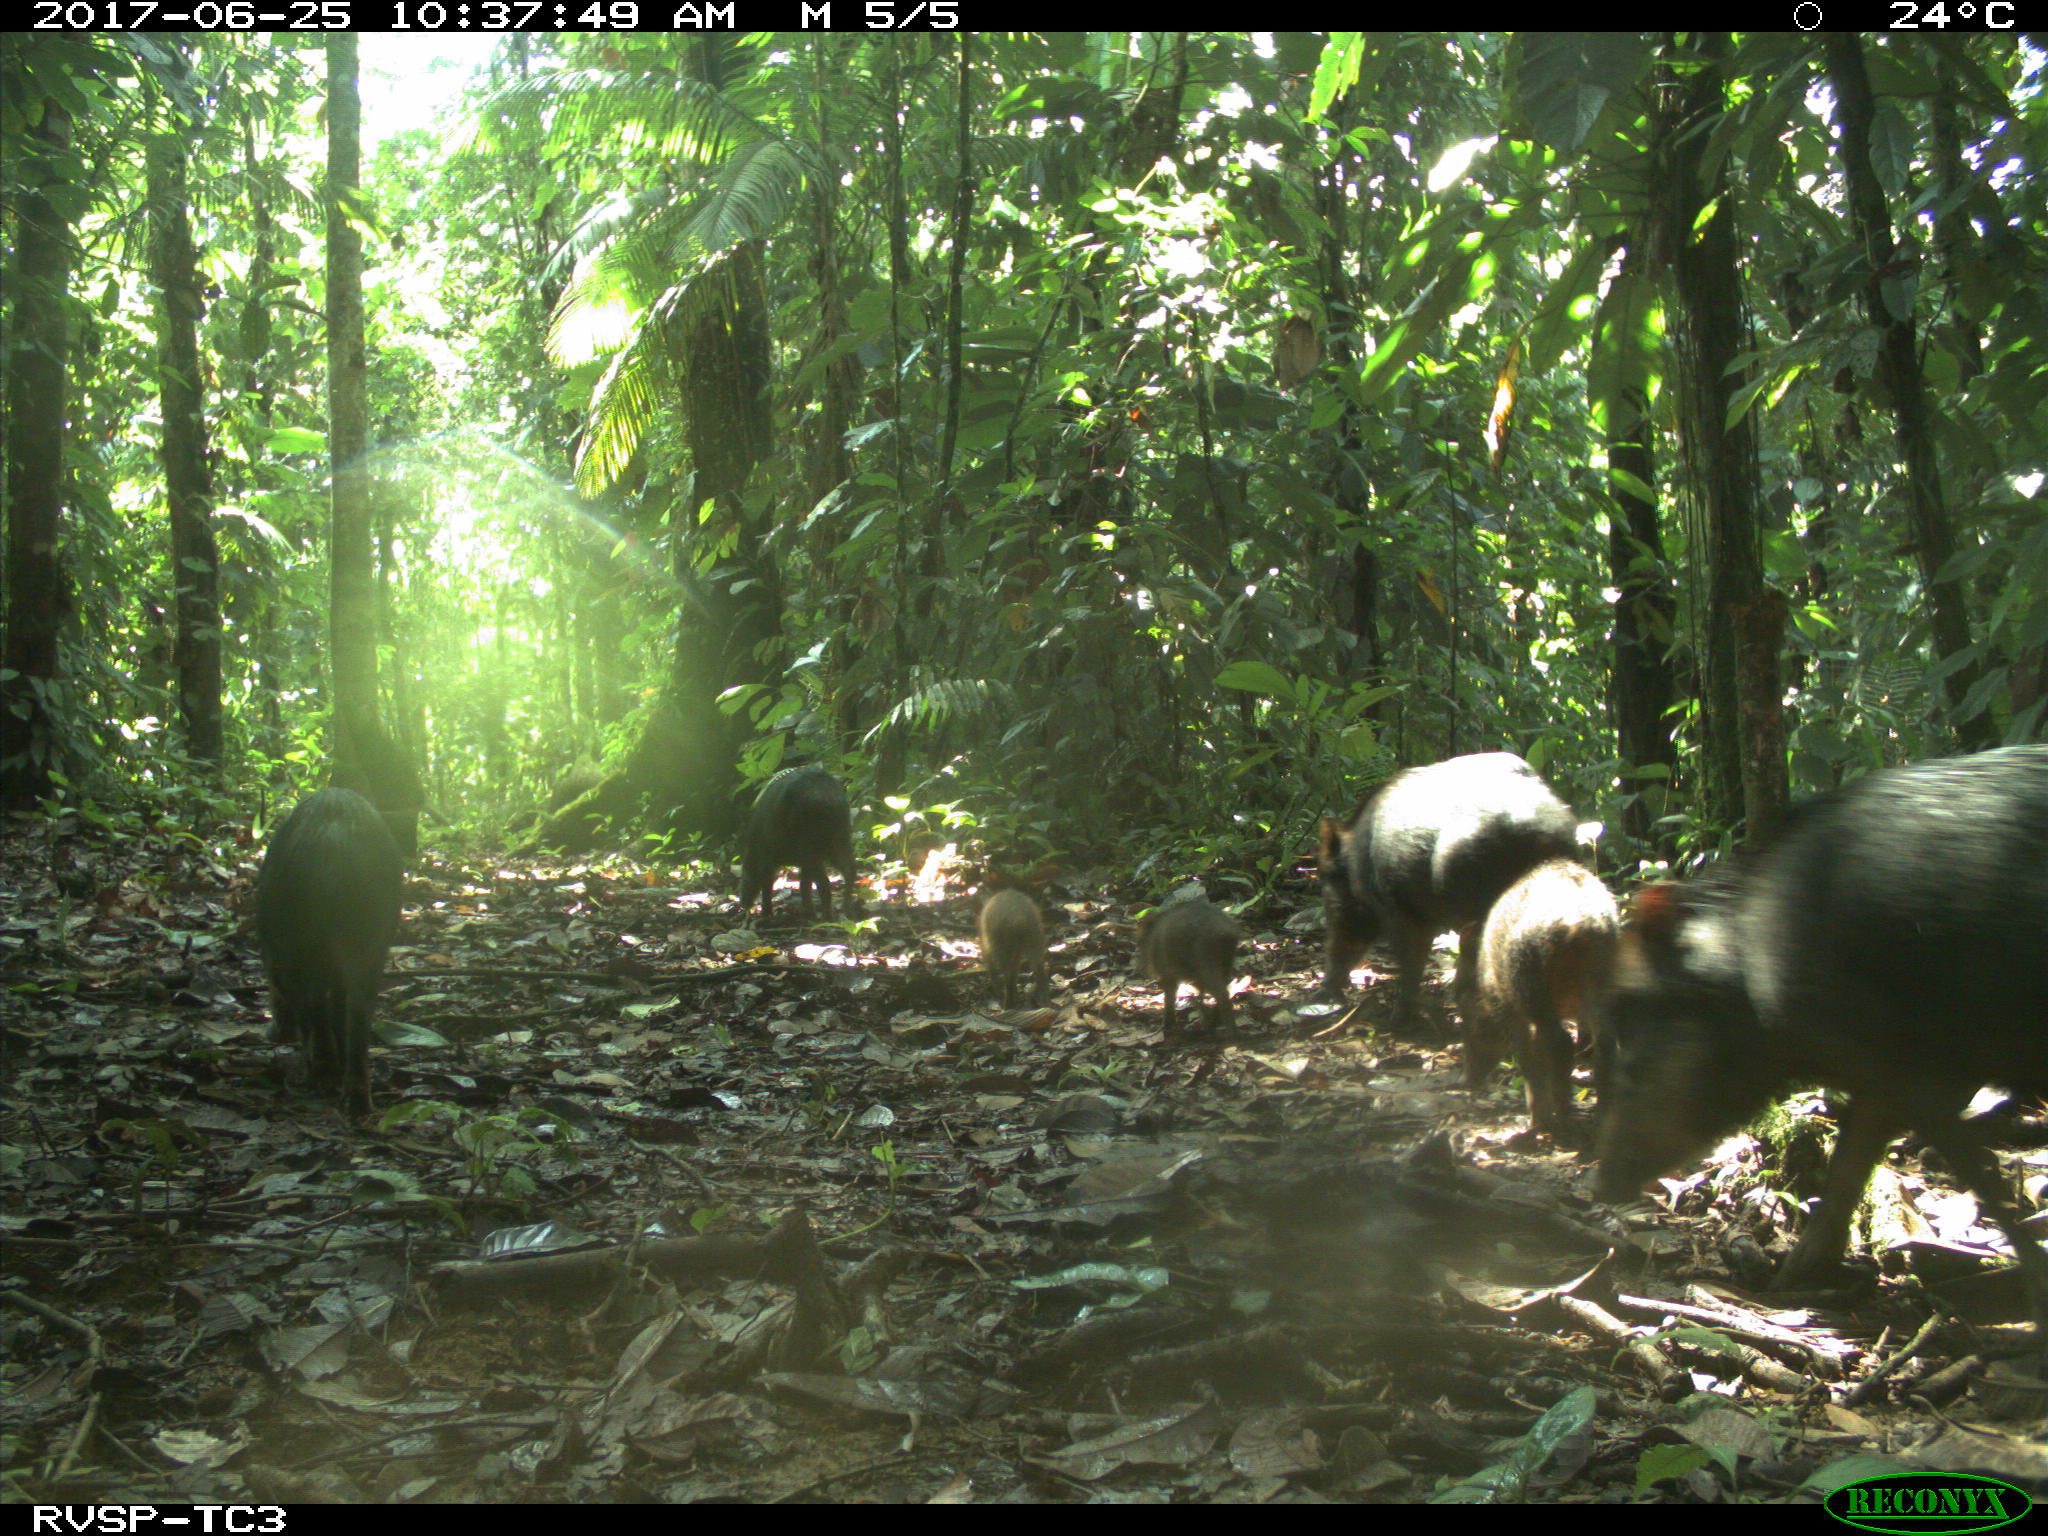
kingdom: Animalia
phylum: Chordata
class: Mammalia
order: Artiodactyla
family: Tayassuidae
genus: Tayassu
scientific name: Tayassu pecari
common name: White-lipped peccary
